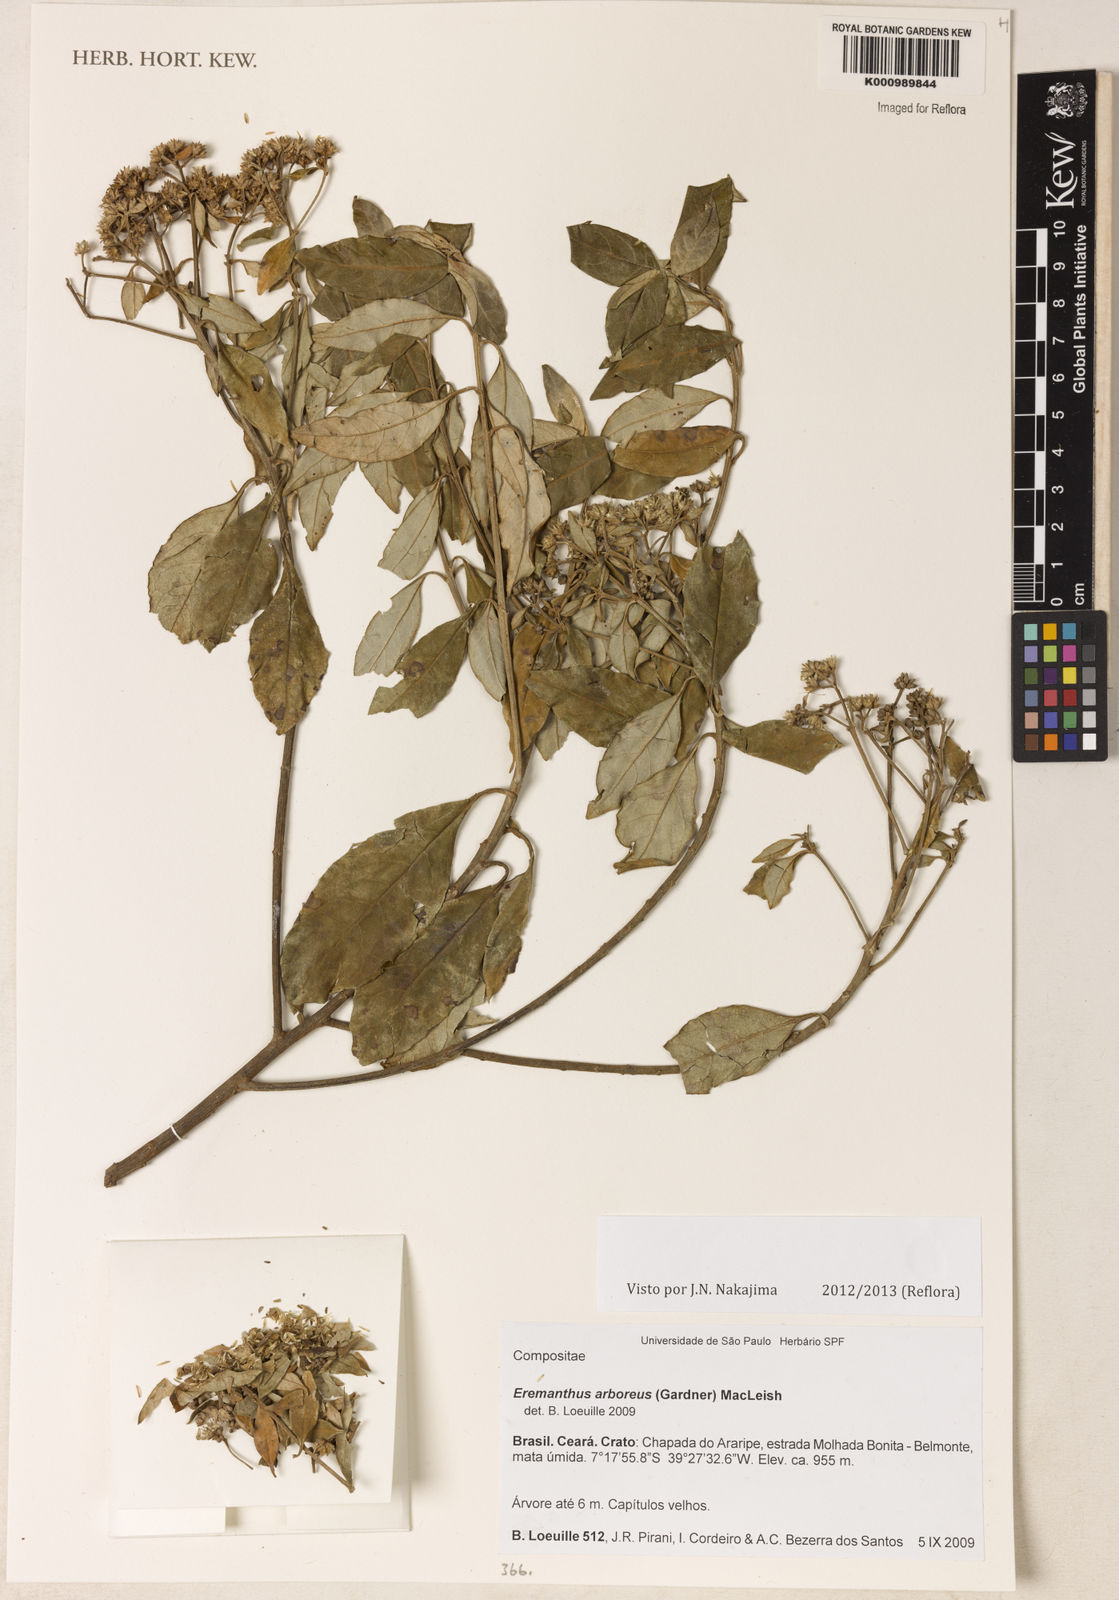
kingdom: Plantae
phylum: Tracheophyta
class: Magnoliopsida
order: Asterales
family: Asteraceae
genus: Eremanthus
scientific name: Eremanthus arboreus
